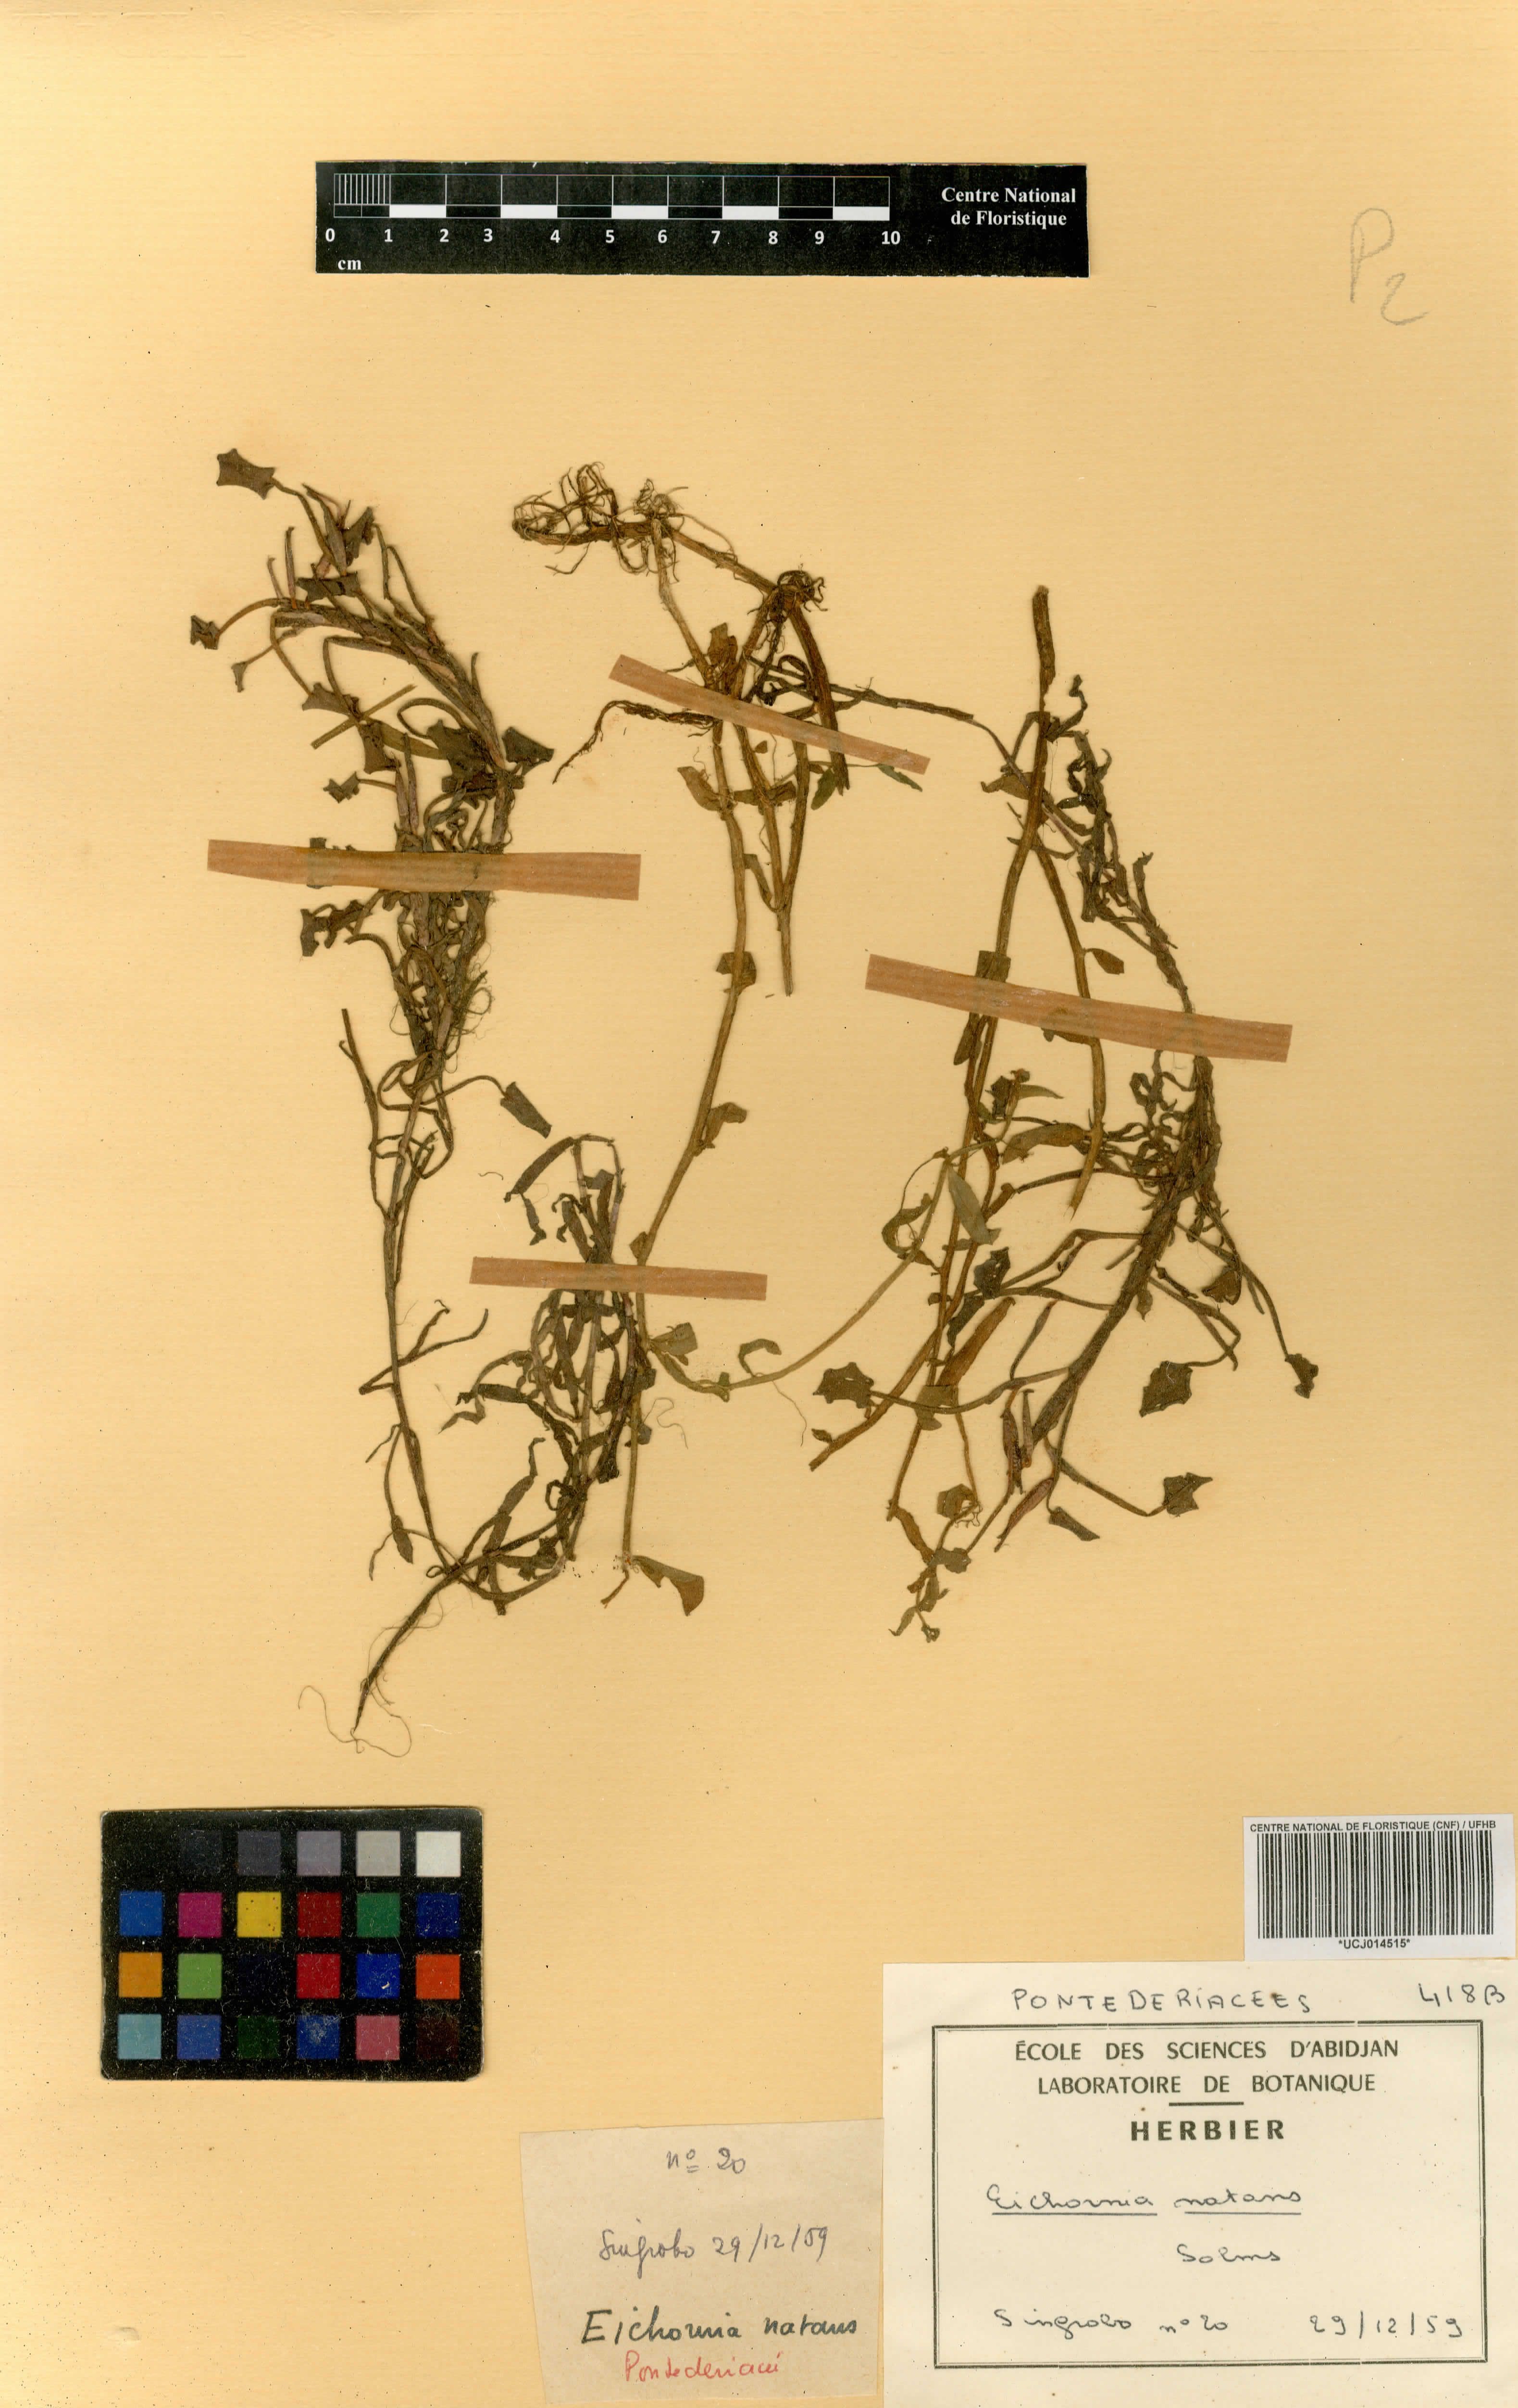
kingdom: Plantae
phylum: Tracheophyta
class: Liliopsida
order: Commelinales
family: Pontederiaceae
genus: Pontederia
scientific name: Pontederia natans
